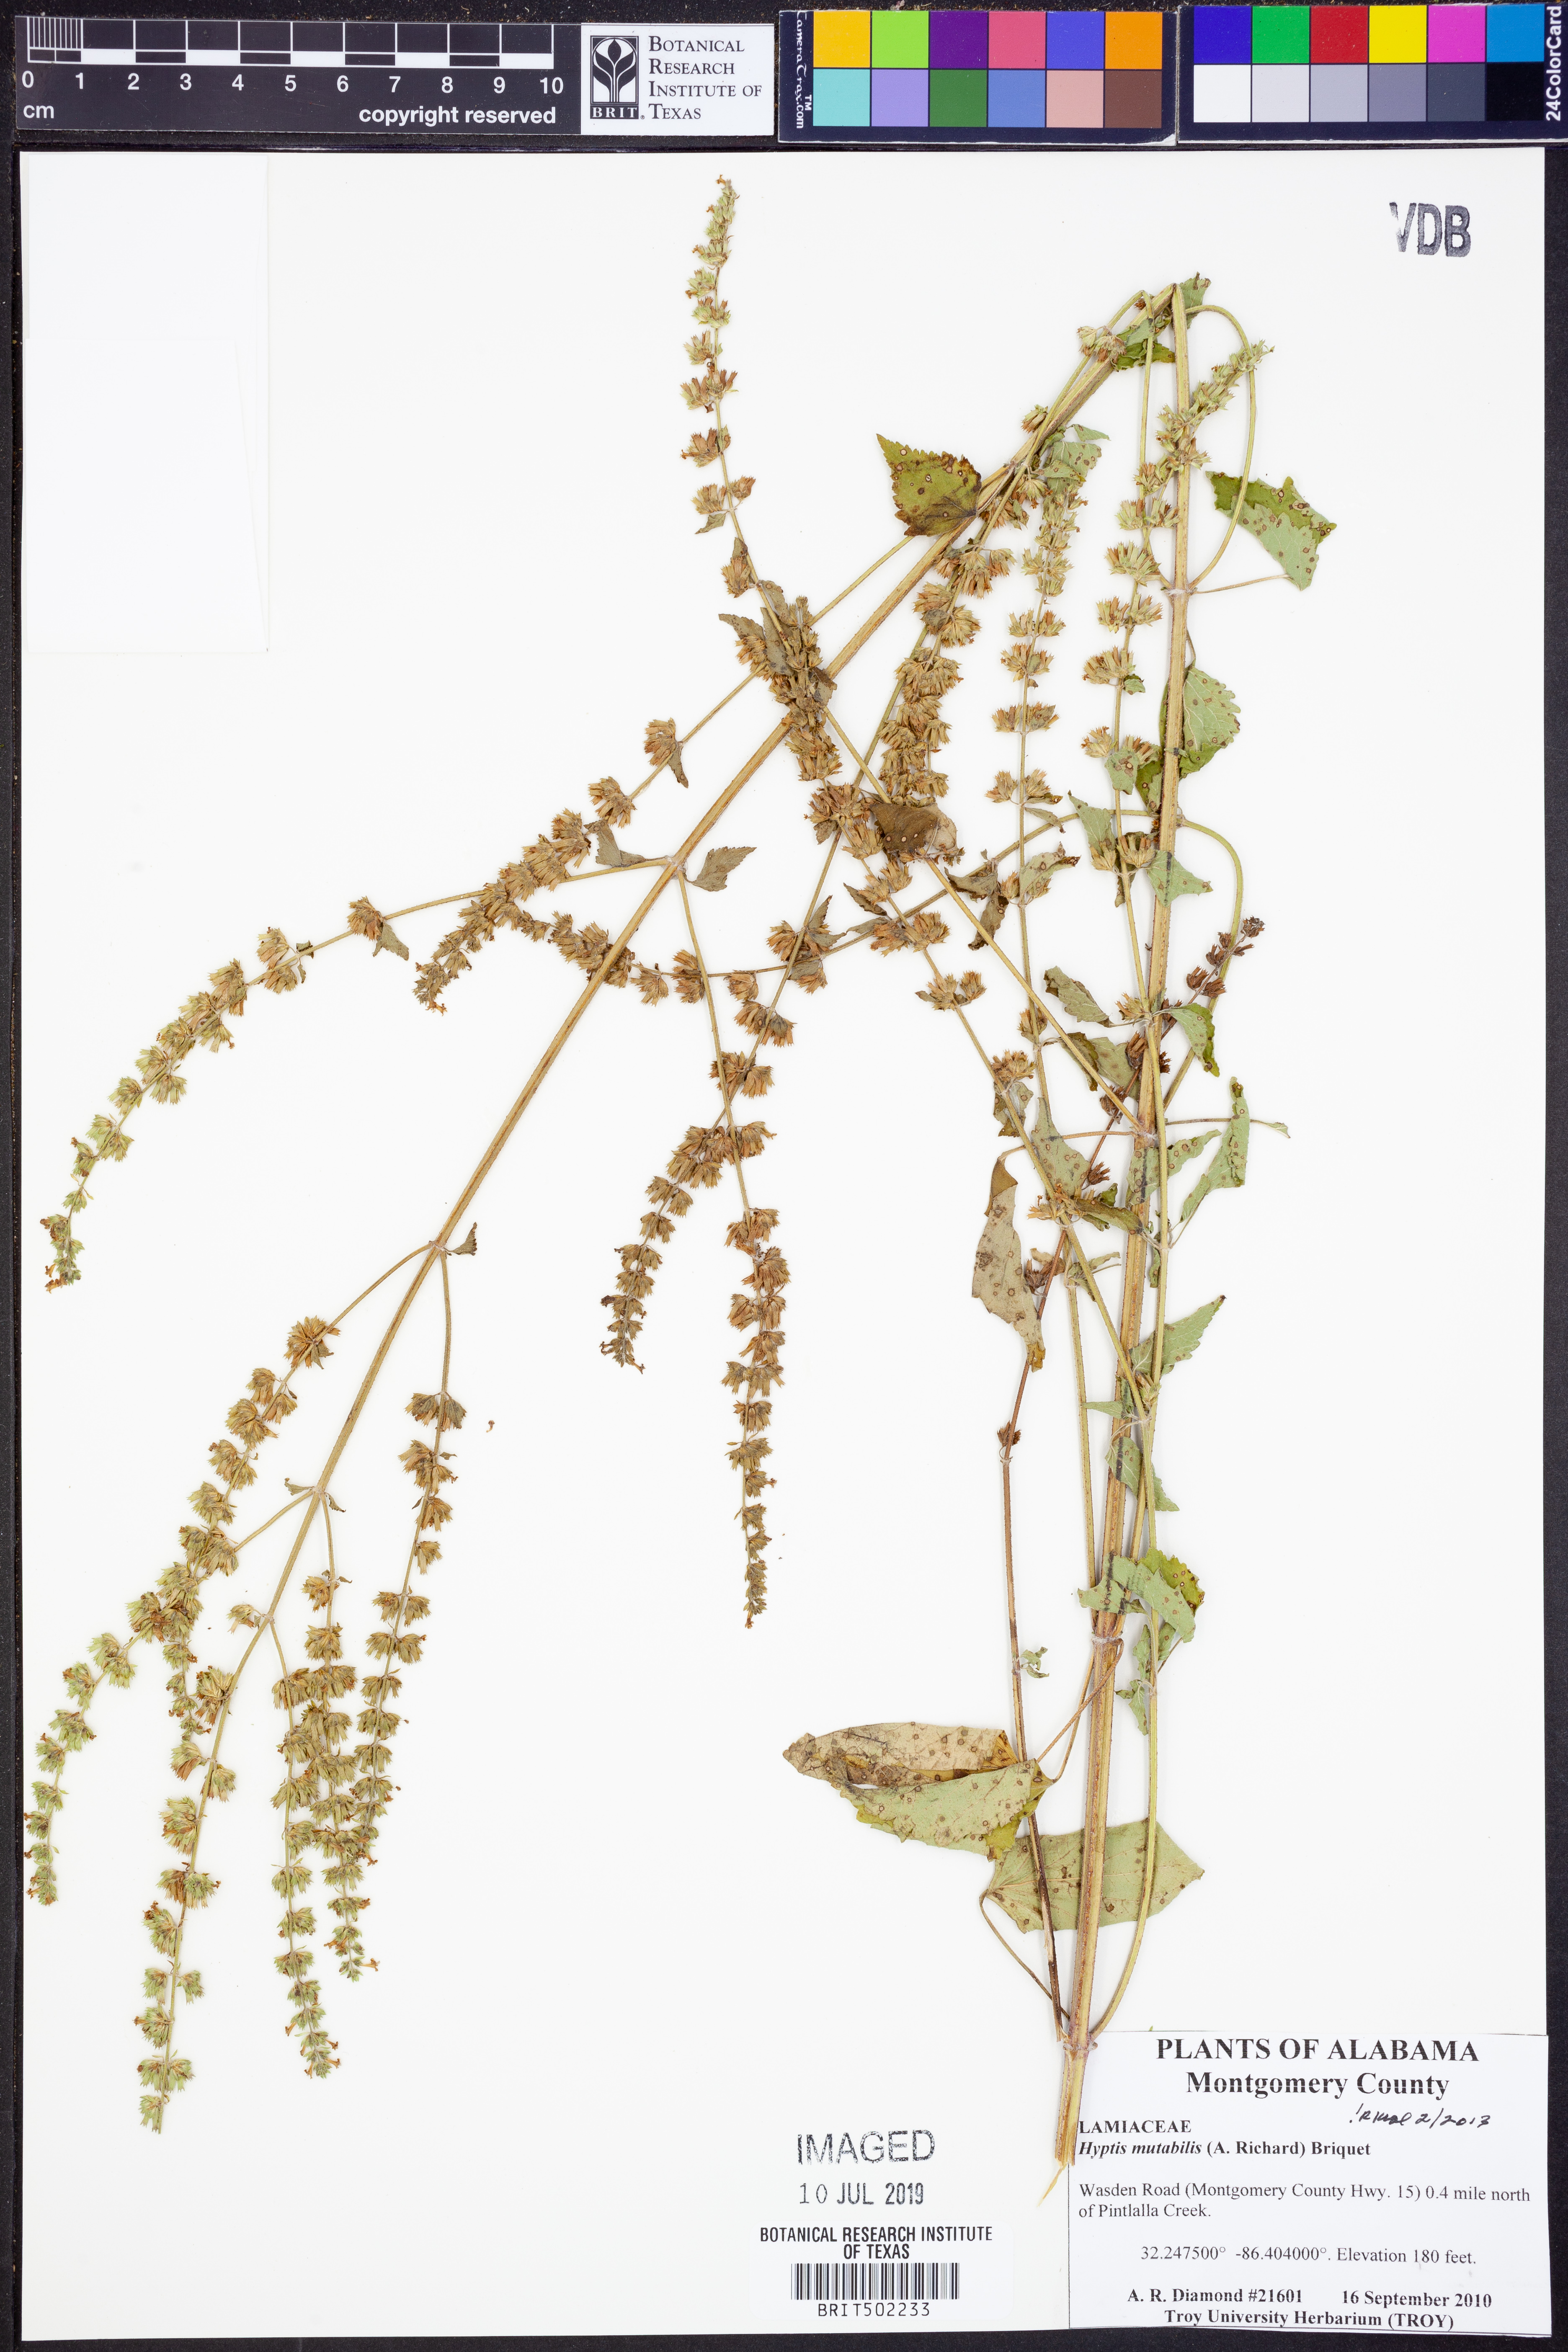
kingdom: Plantae
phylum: Tracheophyta
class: Magnoliopsida
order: Lamiales
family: Lamiaceae
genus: Cantinoa
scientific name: Cantinoa mutabilis
